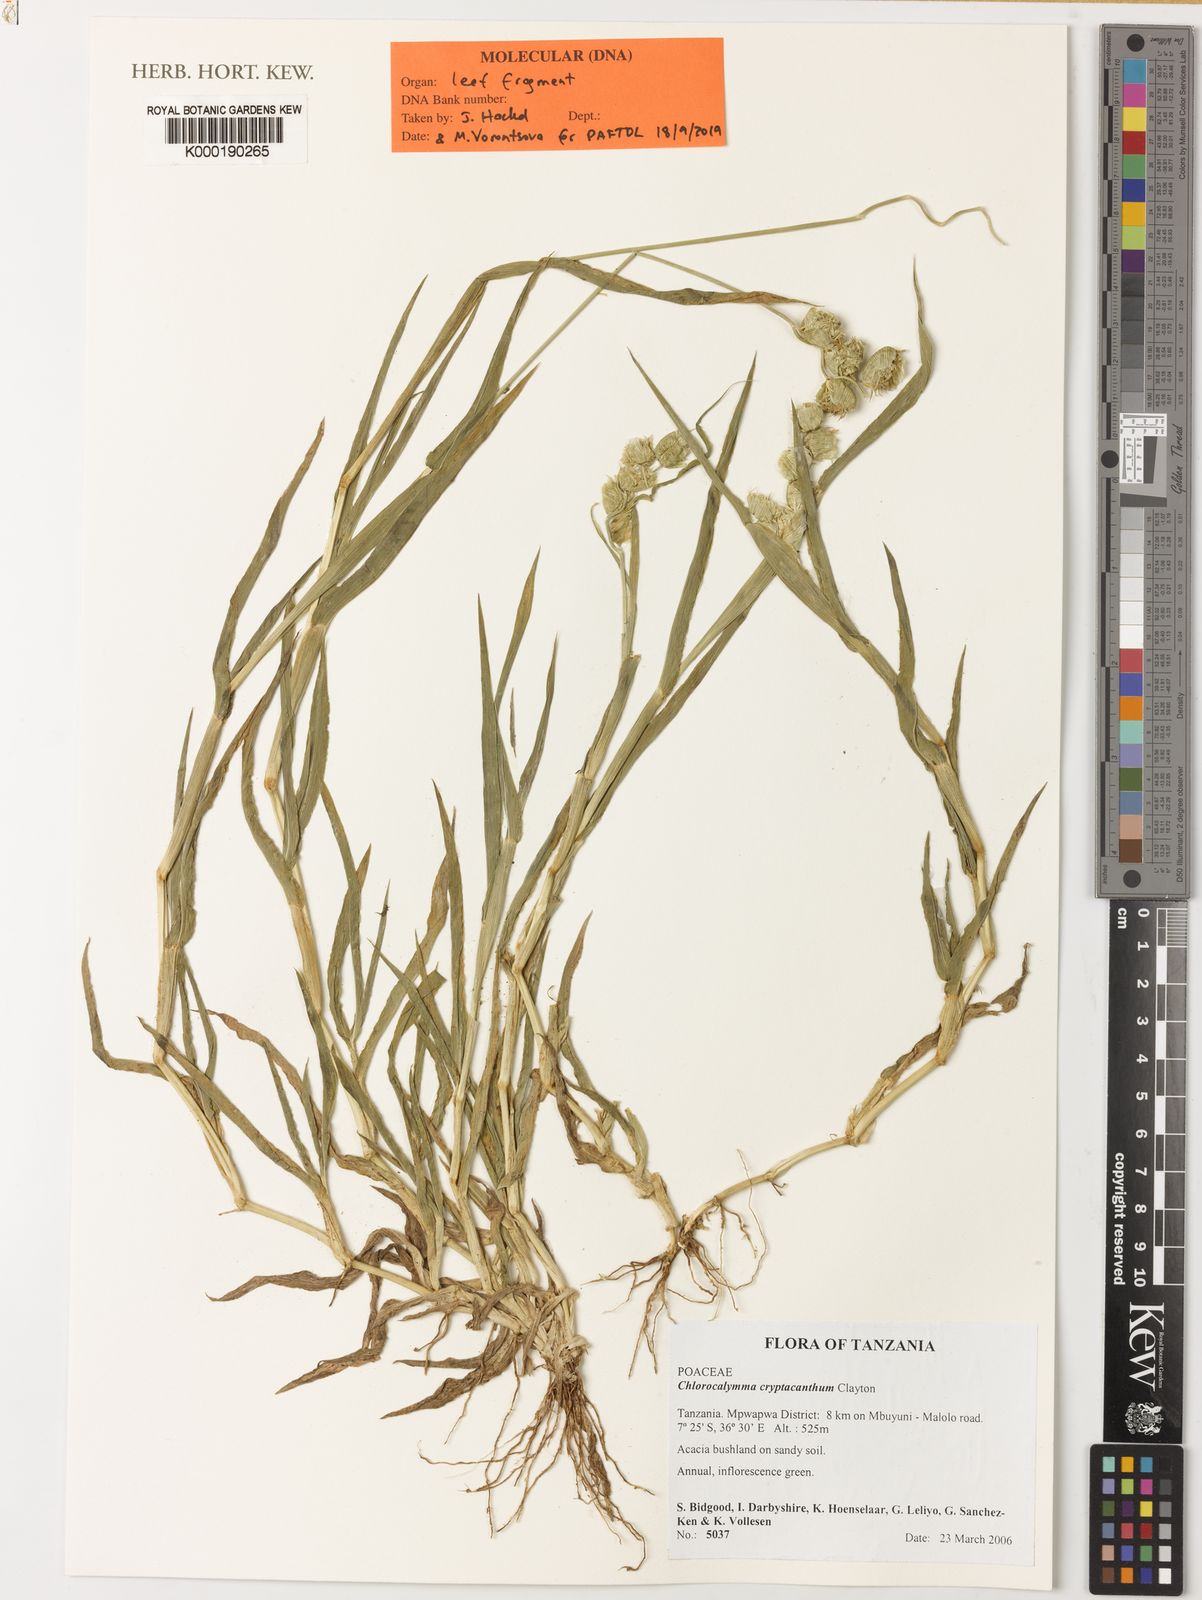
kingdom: Plantae
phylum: Tracheophyta
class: Liliopsida
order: Poales
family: Poaceae
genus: Chlorocalymma
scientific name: Chlorocalymma cryptacanthum
